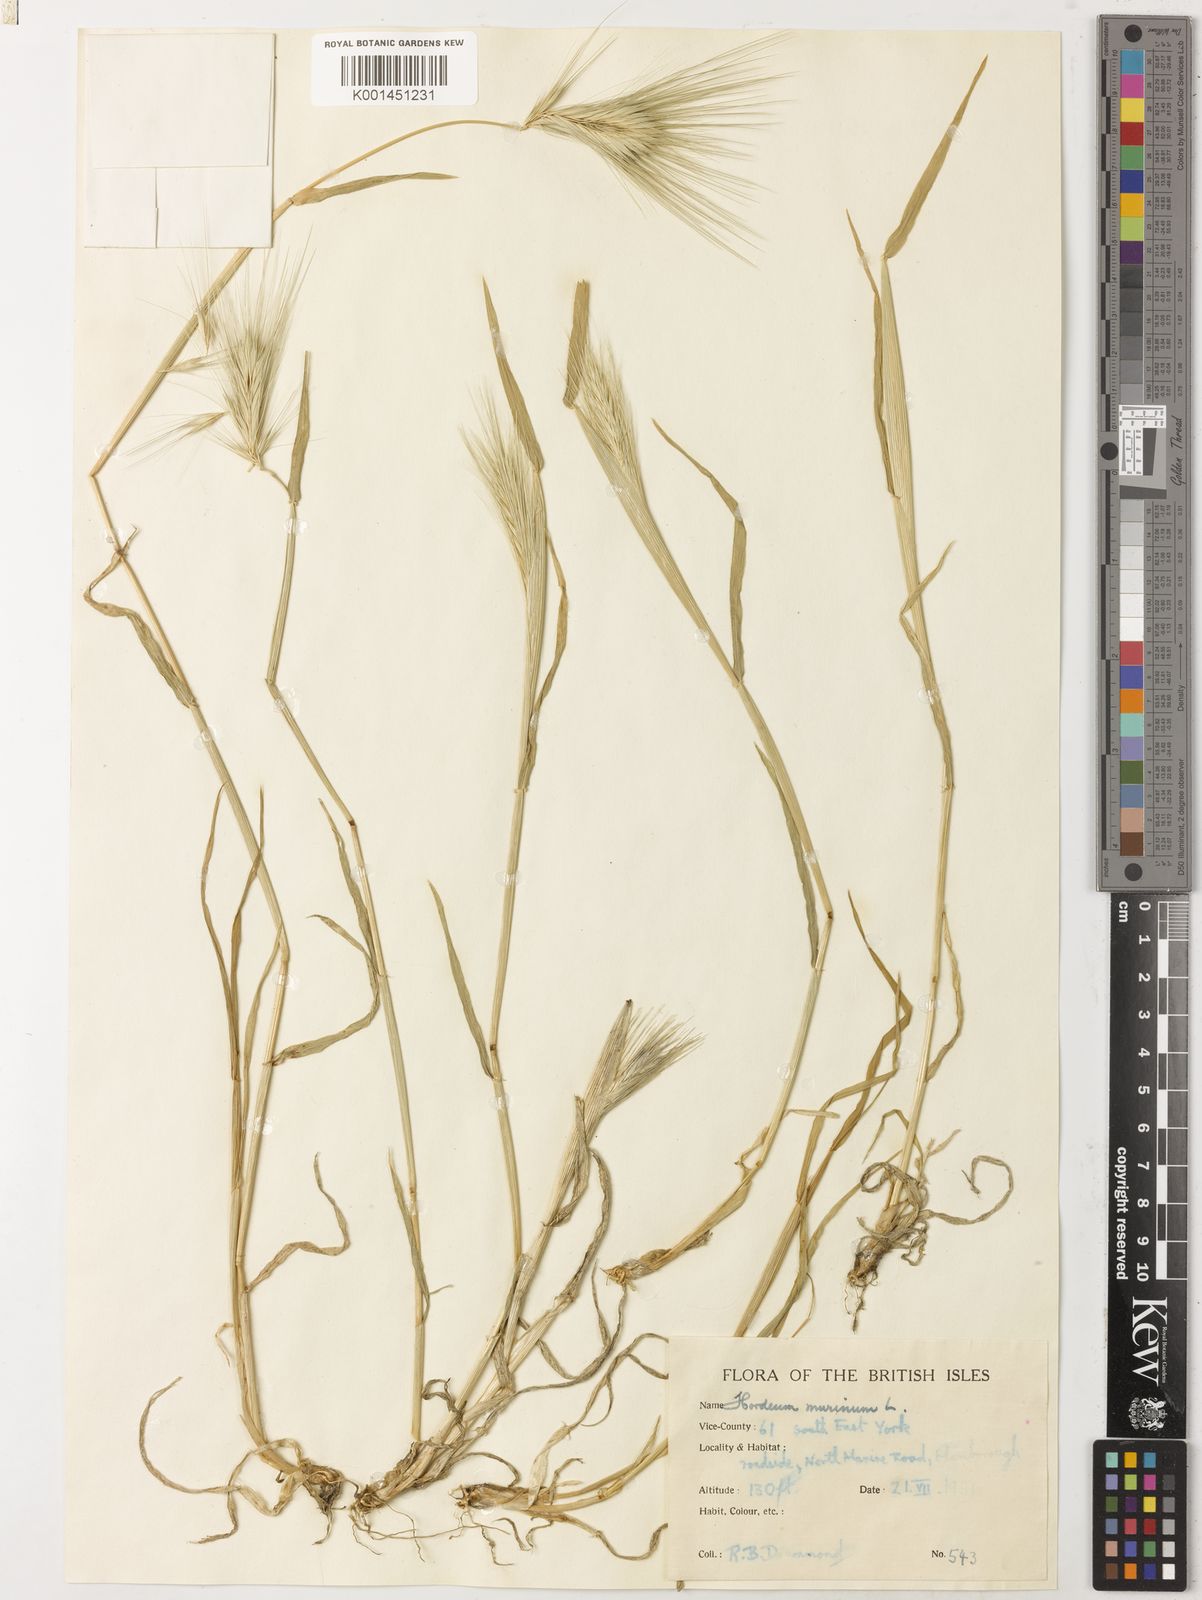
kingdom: Plantae
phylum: Tracheophyta
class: Liliopsida
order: Poales
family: Poaceae
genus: Hordeum
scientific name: Hordeum murinum
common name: Wall barley
